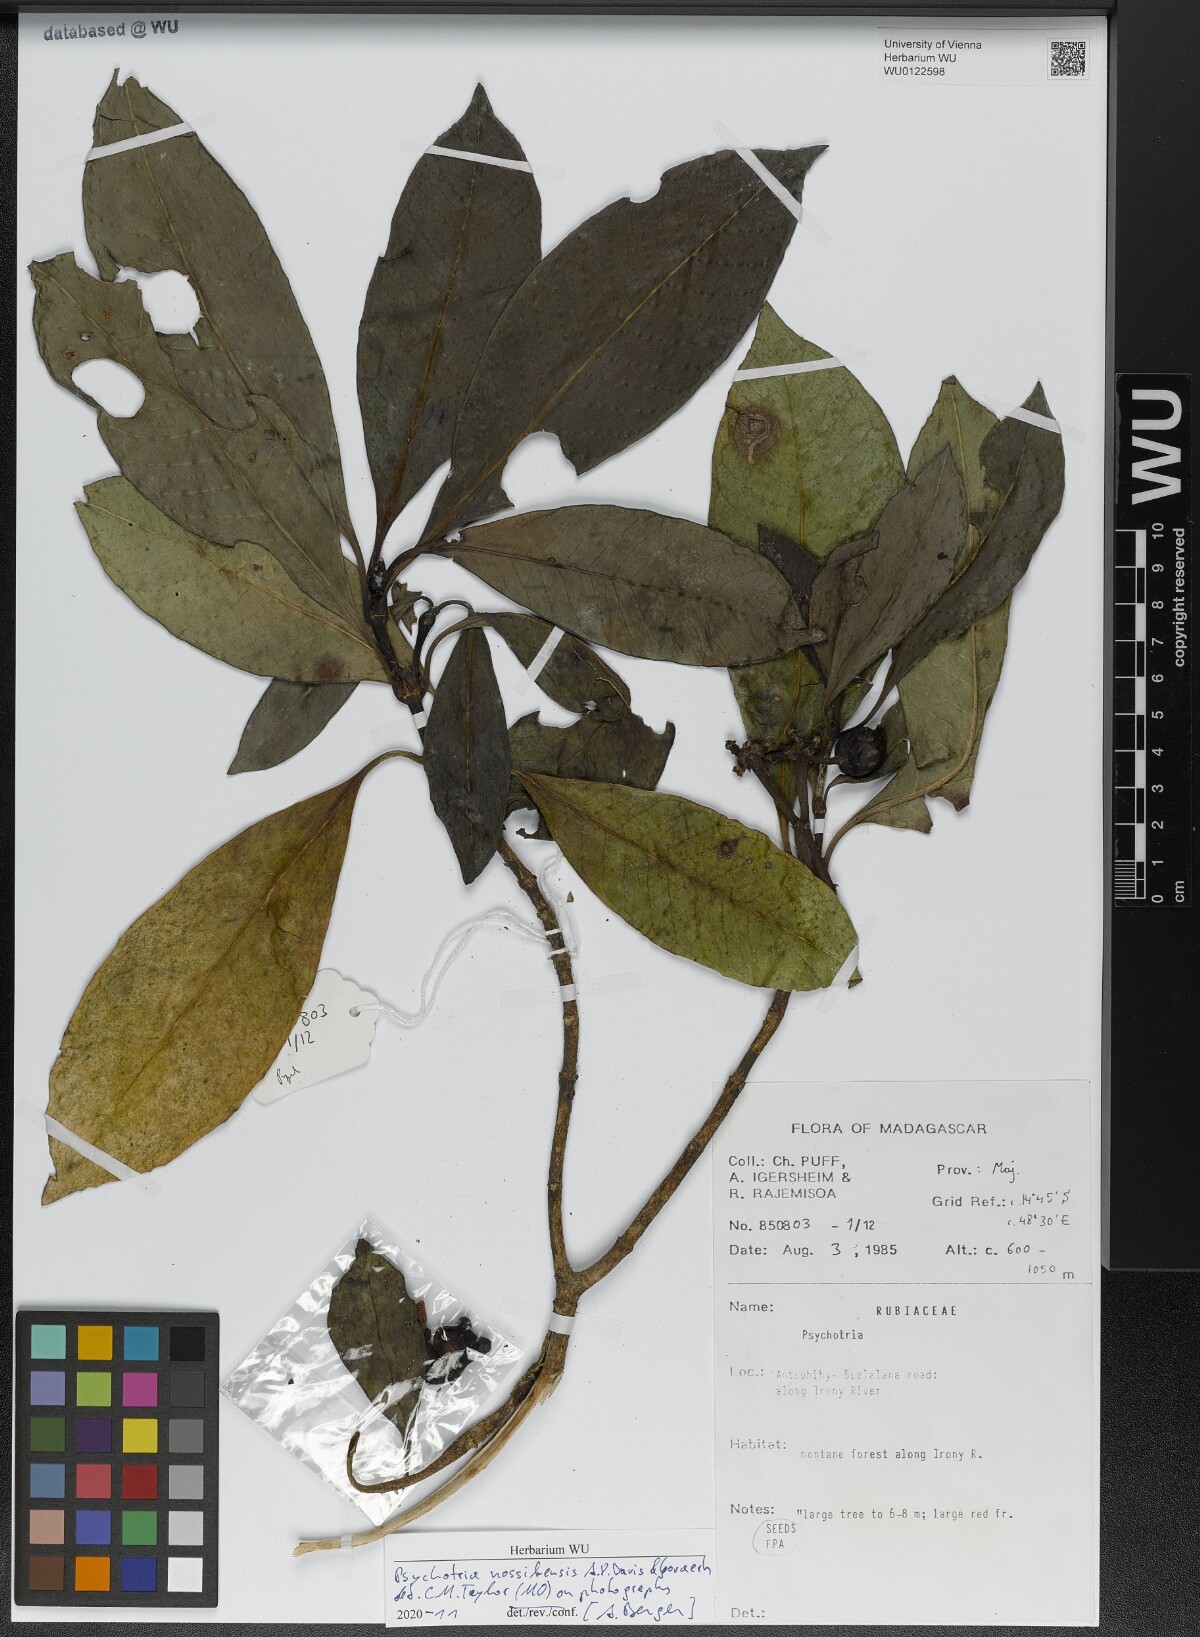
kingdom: Plantae
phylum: Tracheophyta
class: Magnoliopsida
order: Gentianales
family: Rubiaceae
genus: Psychotria
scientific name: Psychotria nossibensis
